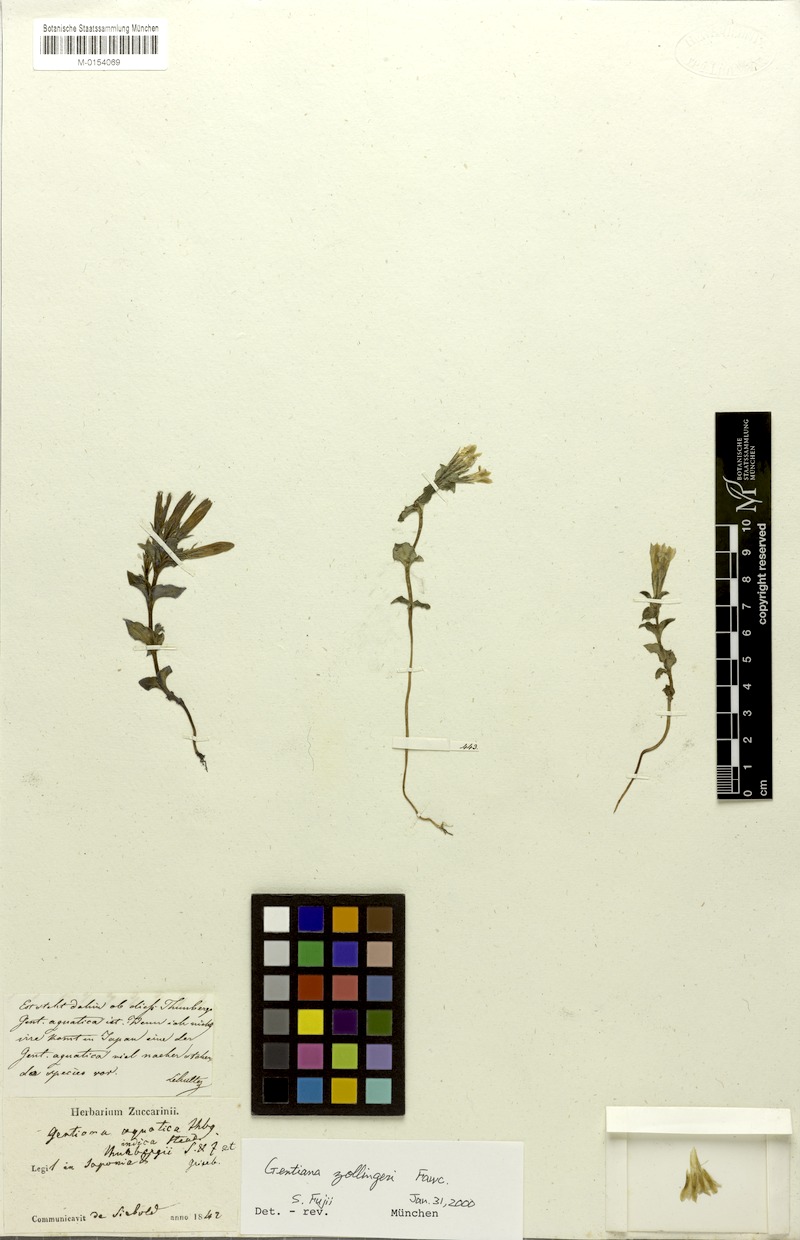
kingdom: Plantae
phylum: Tracheophyta
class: Magnoliopsida
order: Gentianales
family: Gentianaceae
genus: Gentiana
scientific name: Gentiana zollingeri
